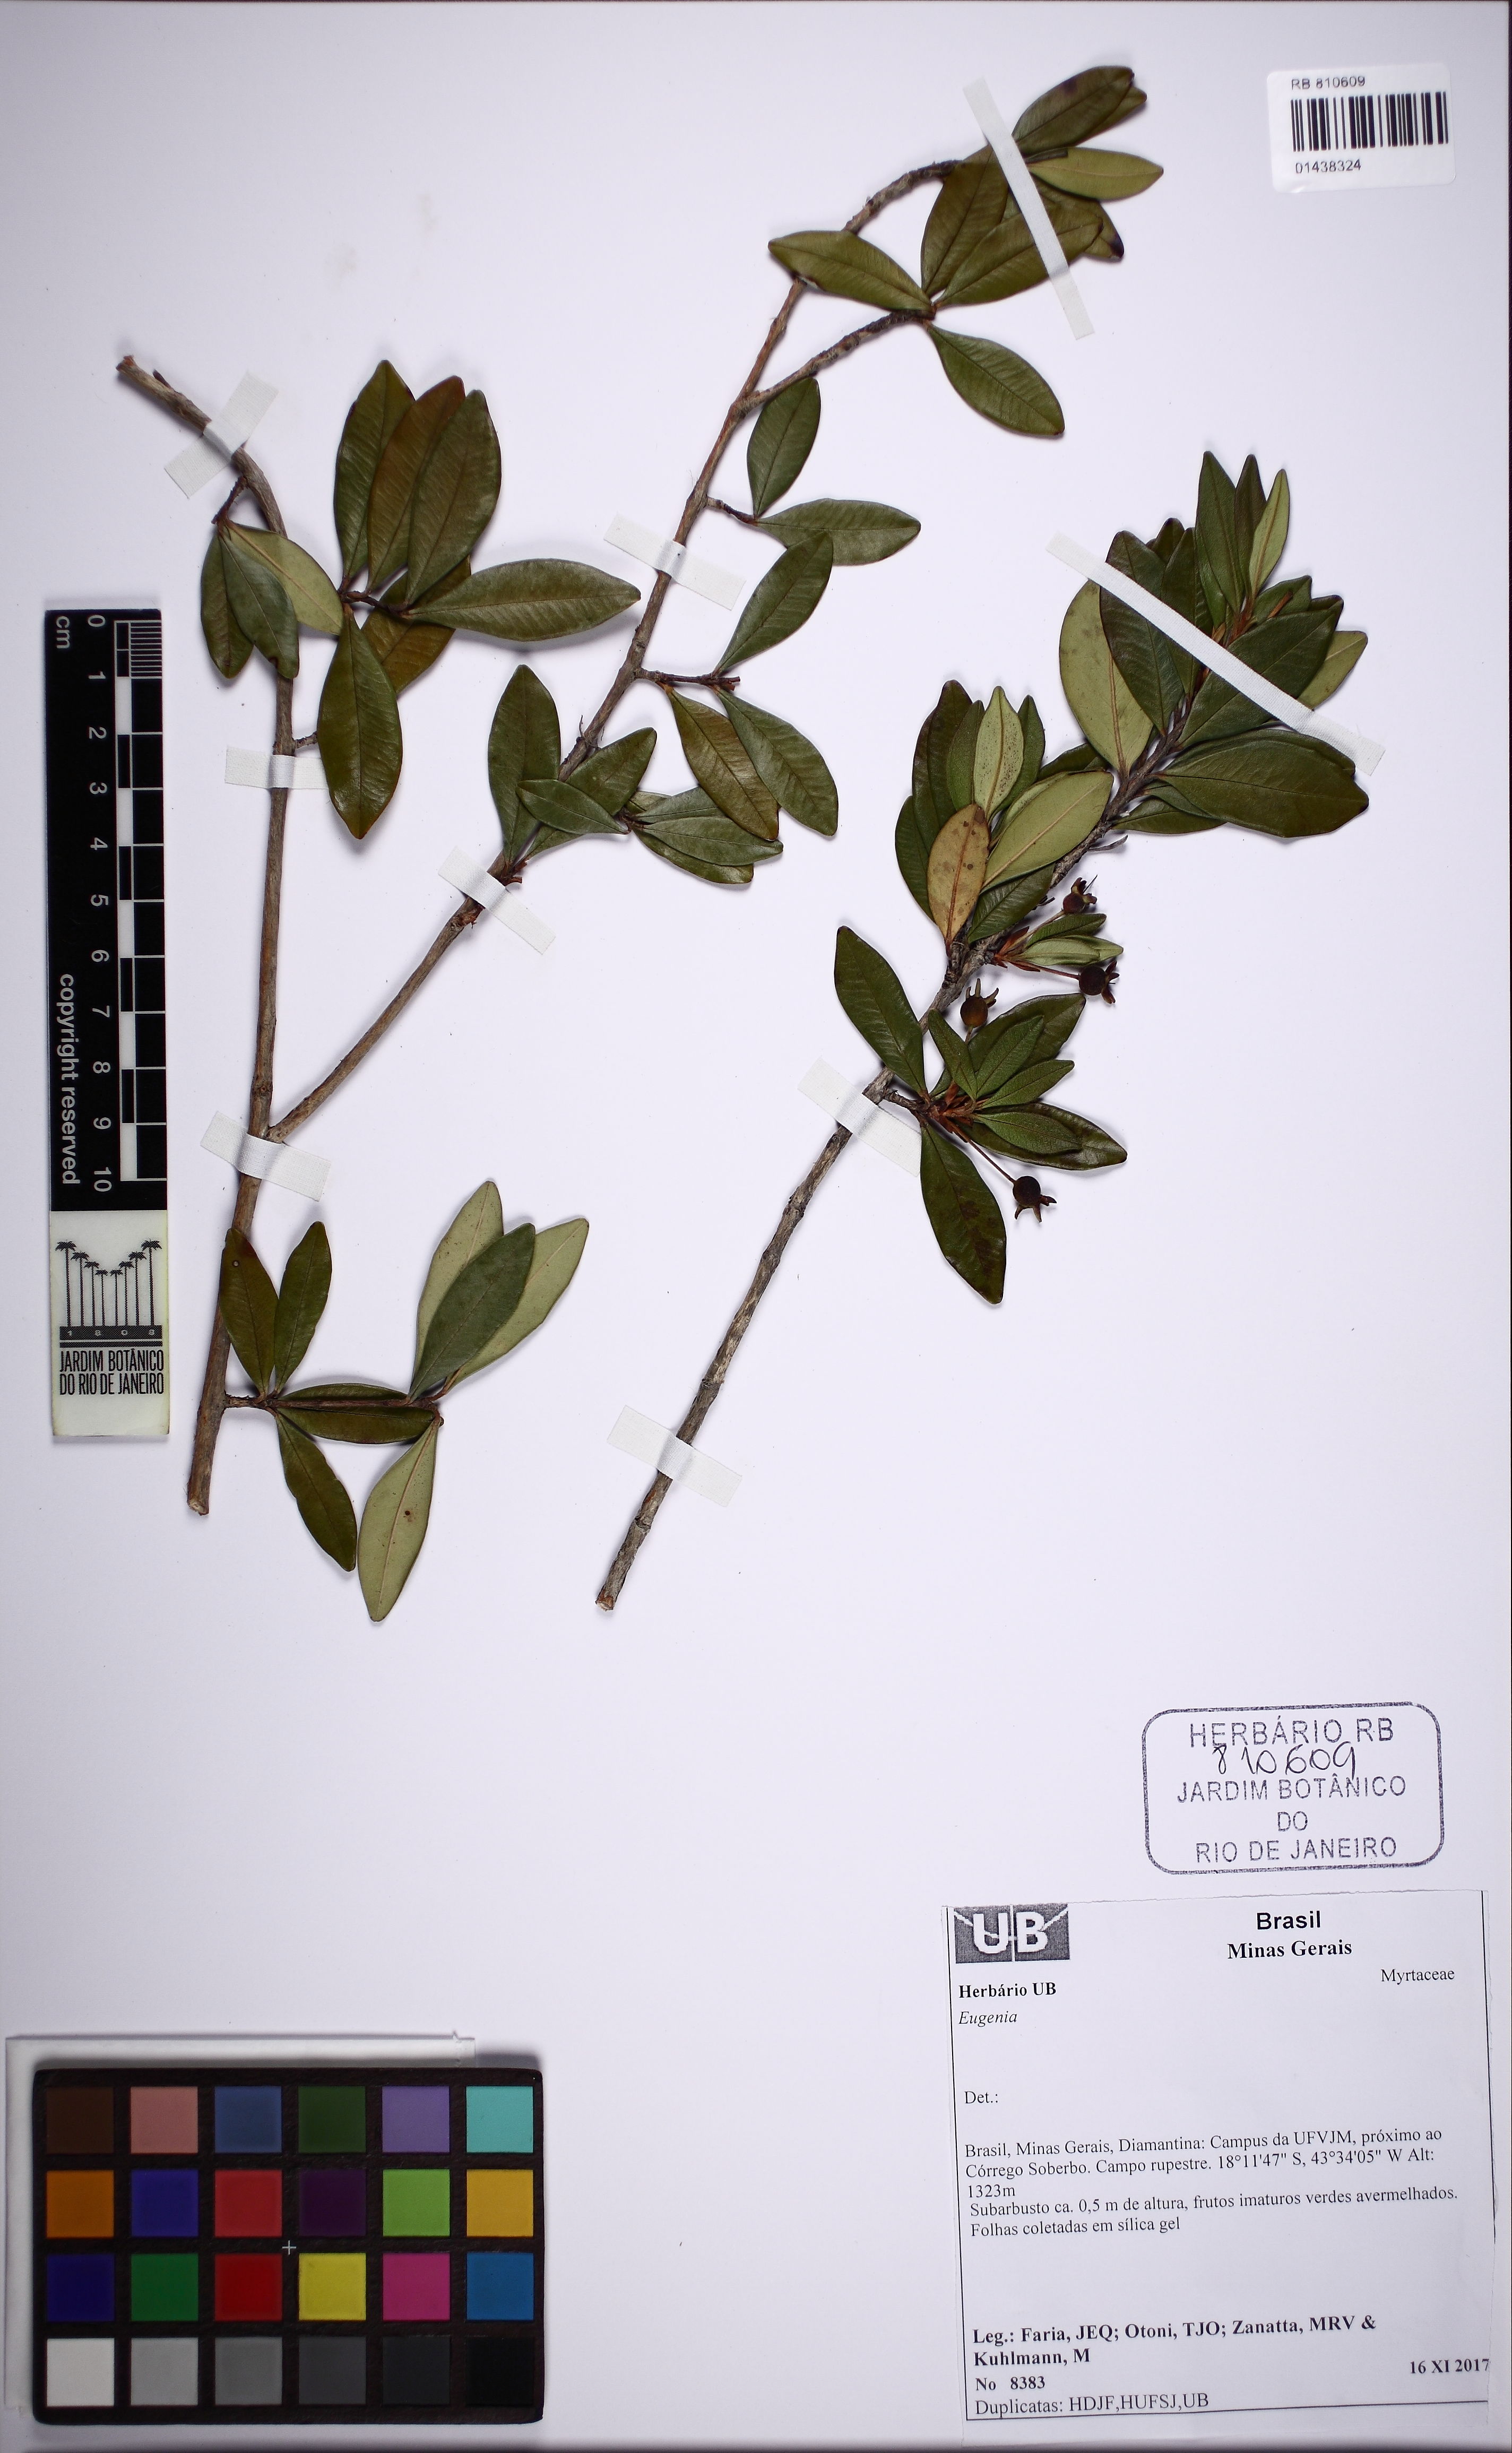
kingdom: Plantae
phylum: Tracheophyta
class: Magnoliopsida
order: Myrtales
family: Myrtaceae
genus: Eugenia
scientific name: Eugenia
